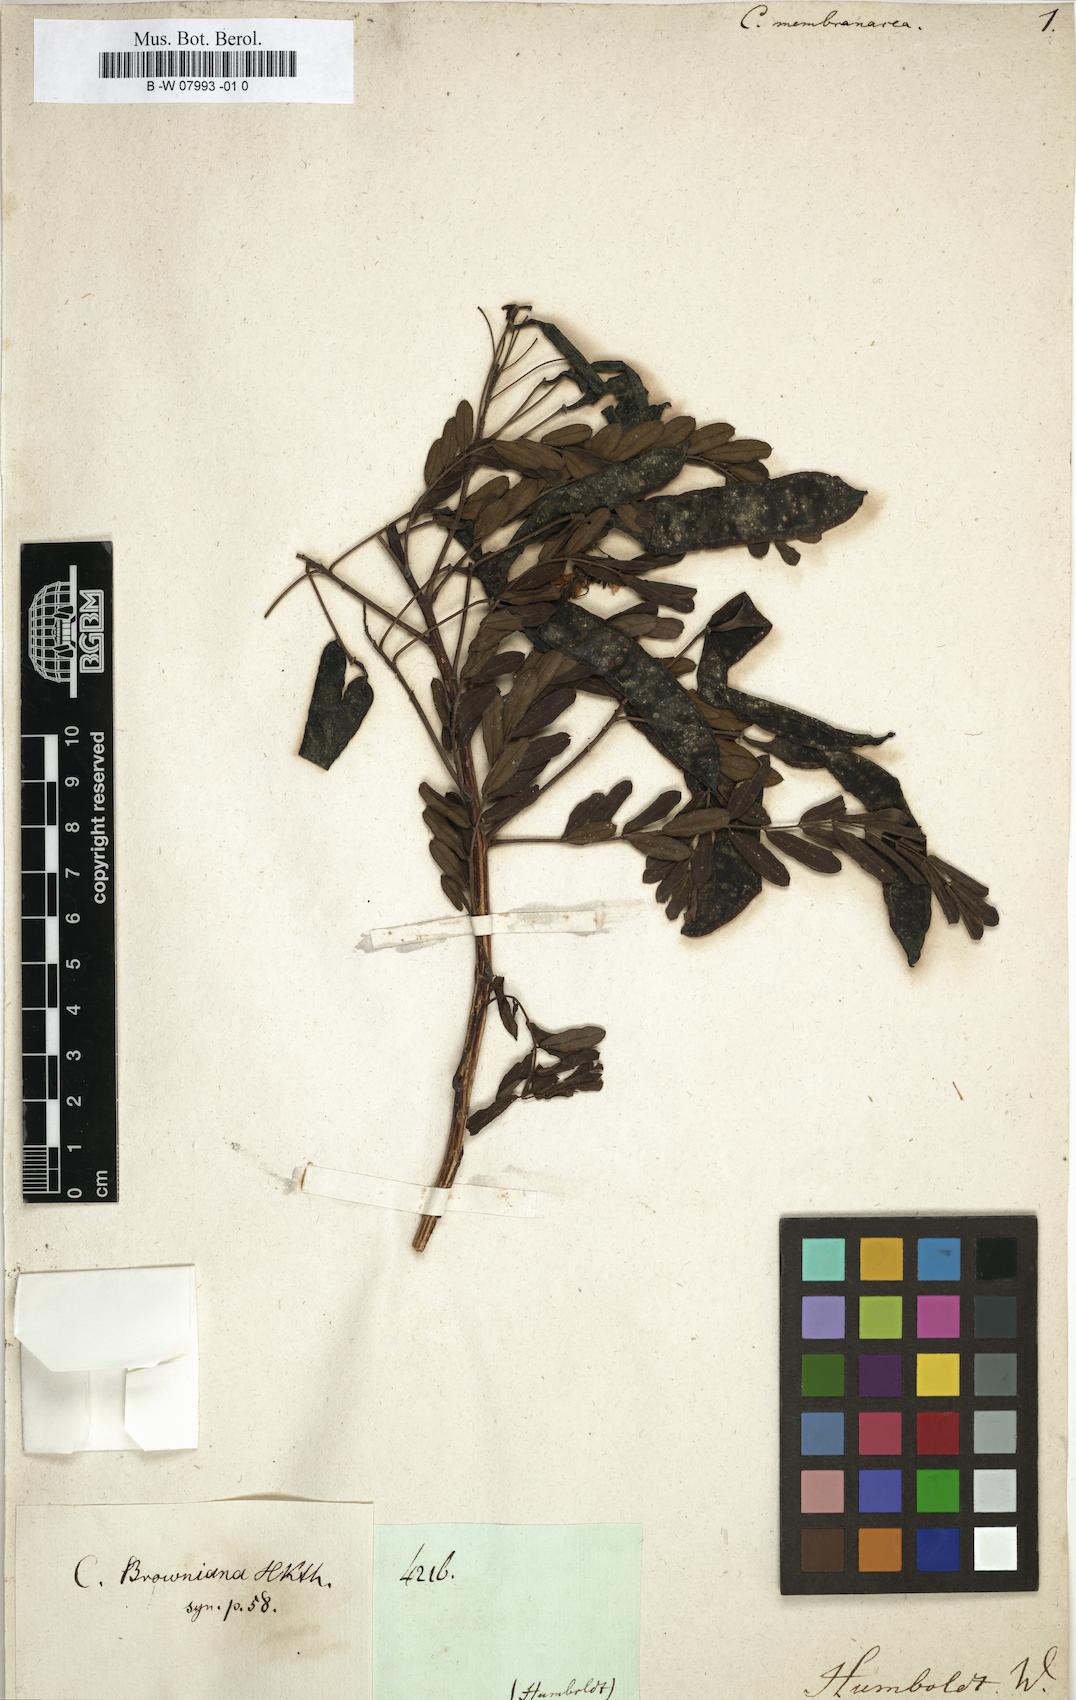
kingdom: Plantae
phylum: Tracheophyta
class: Magnoliopsida
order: Fabales
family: Fabaceae
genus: Cassia
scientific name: Cassia
